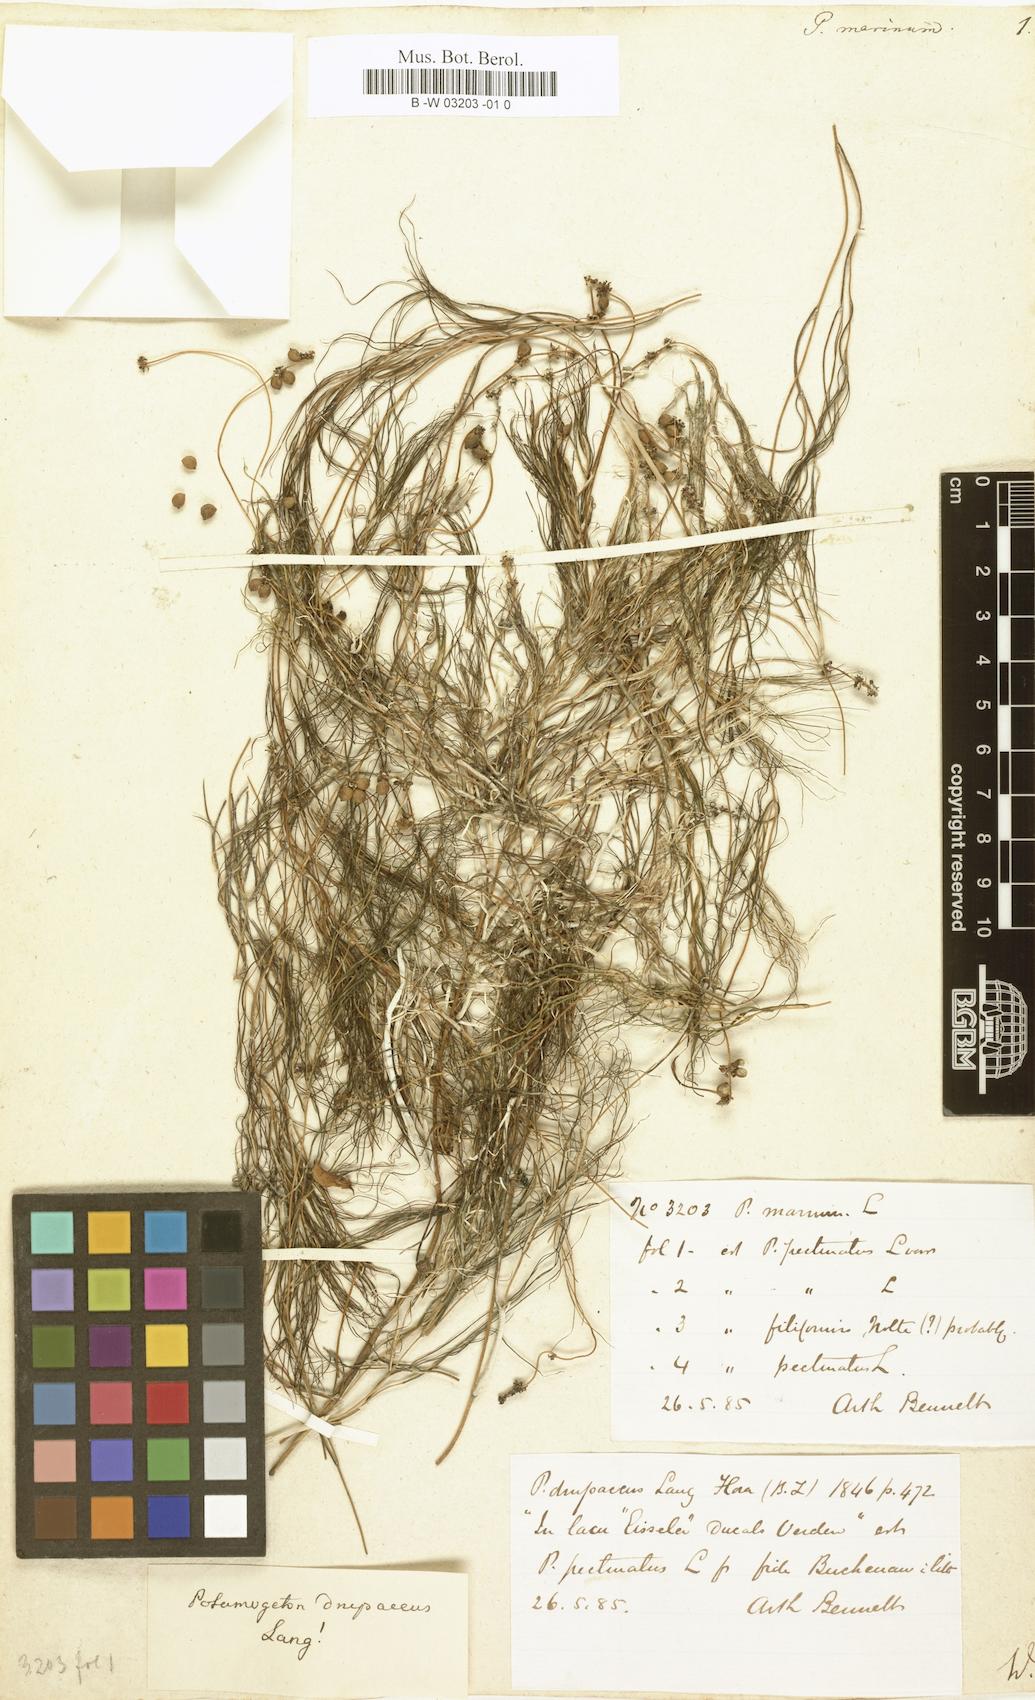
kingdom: Plantae
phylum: Tracheophyta
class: Liliopsida
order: Alismatales
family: Potamogetonaceae
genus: Potamogeton
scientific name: Potamogeton marinus
